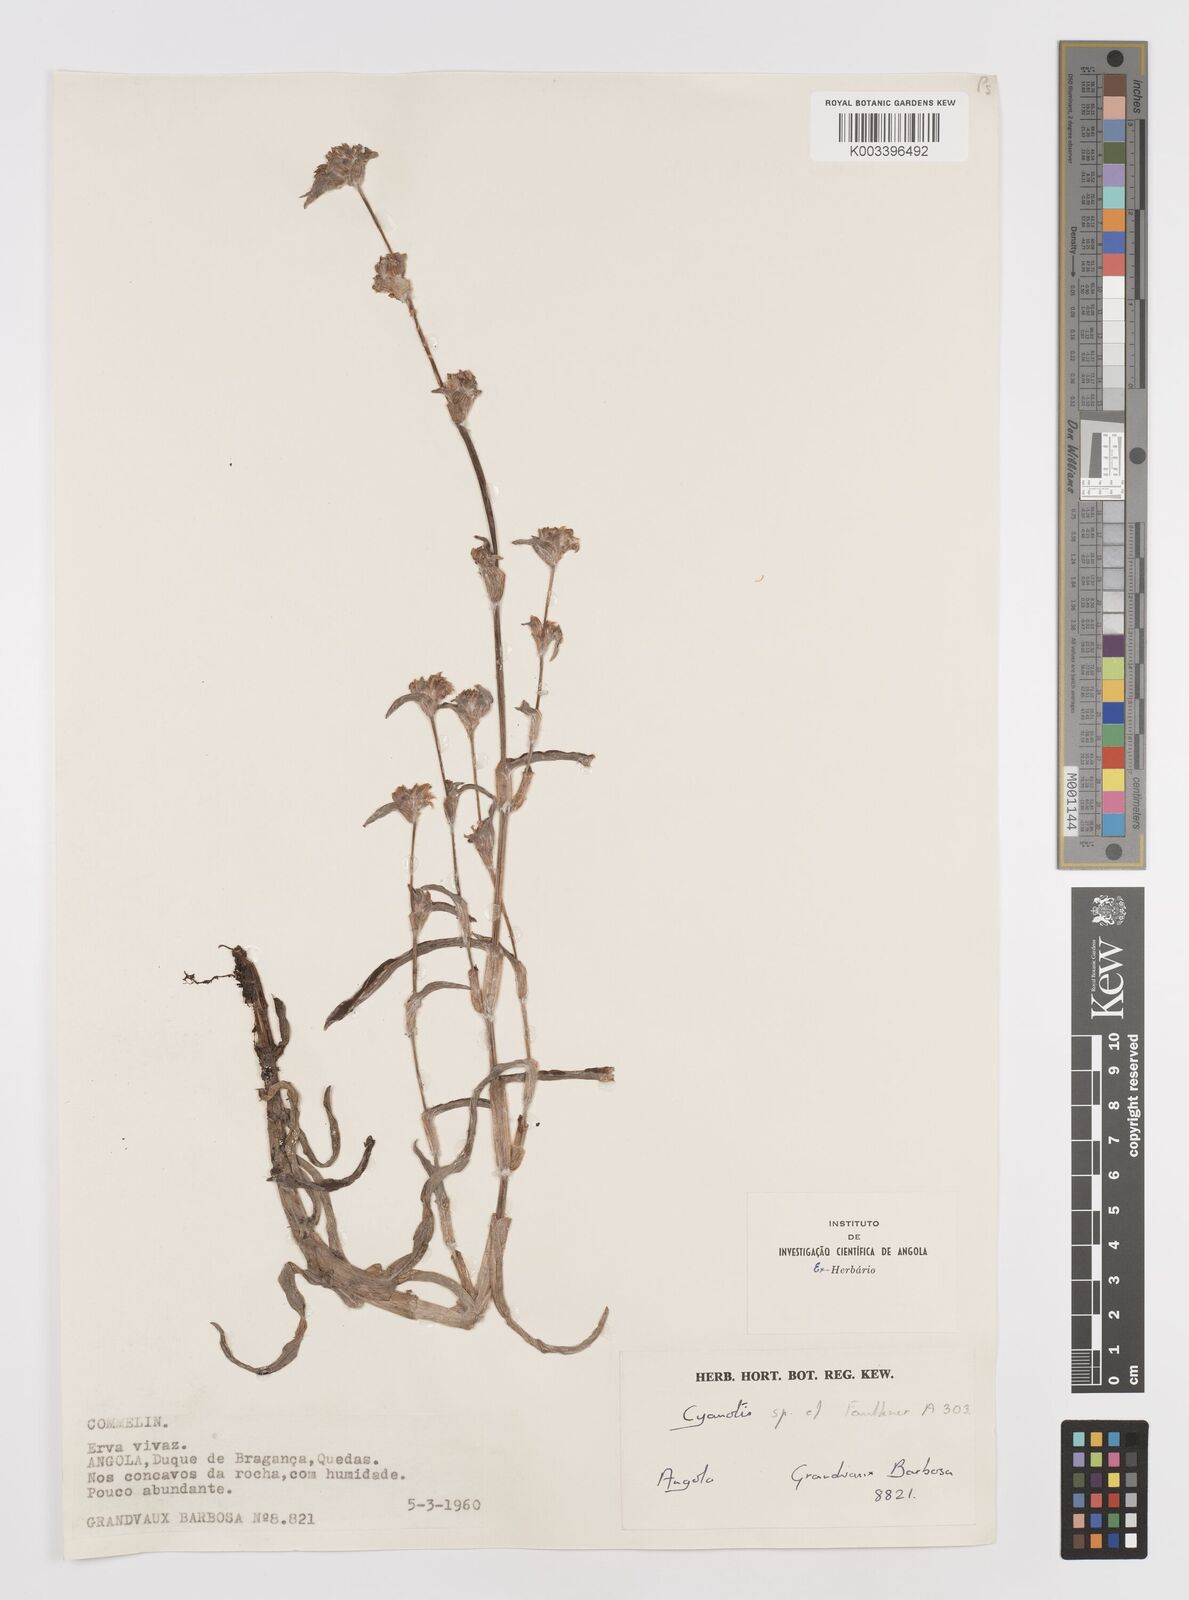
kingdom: Plantae
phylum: Tracheophyta
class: Liliopsida
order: Commelinales
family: Commelinaceae
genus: Cyanotis
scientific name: Cyanotis
